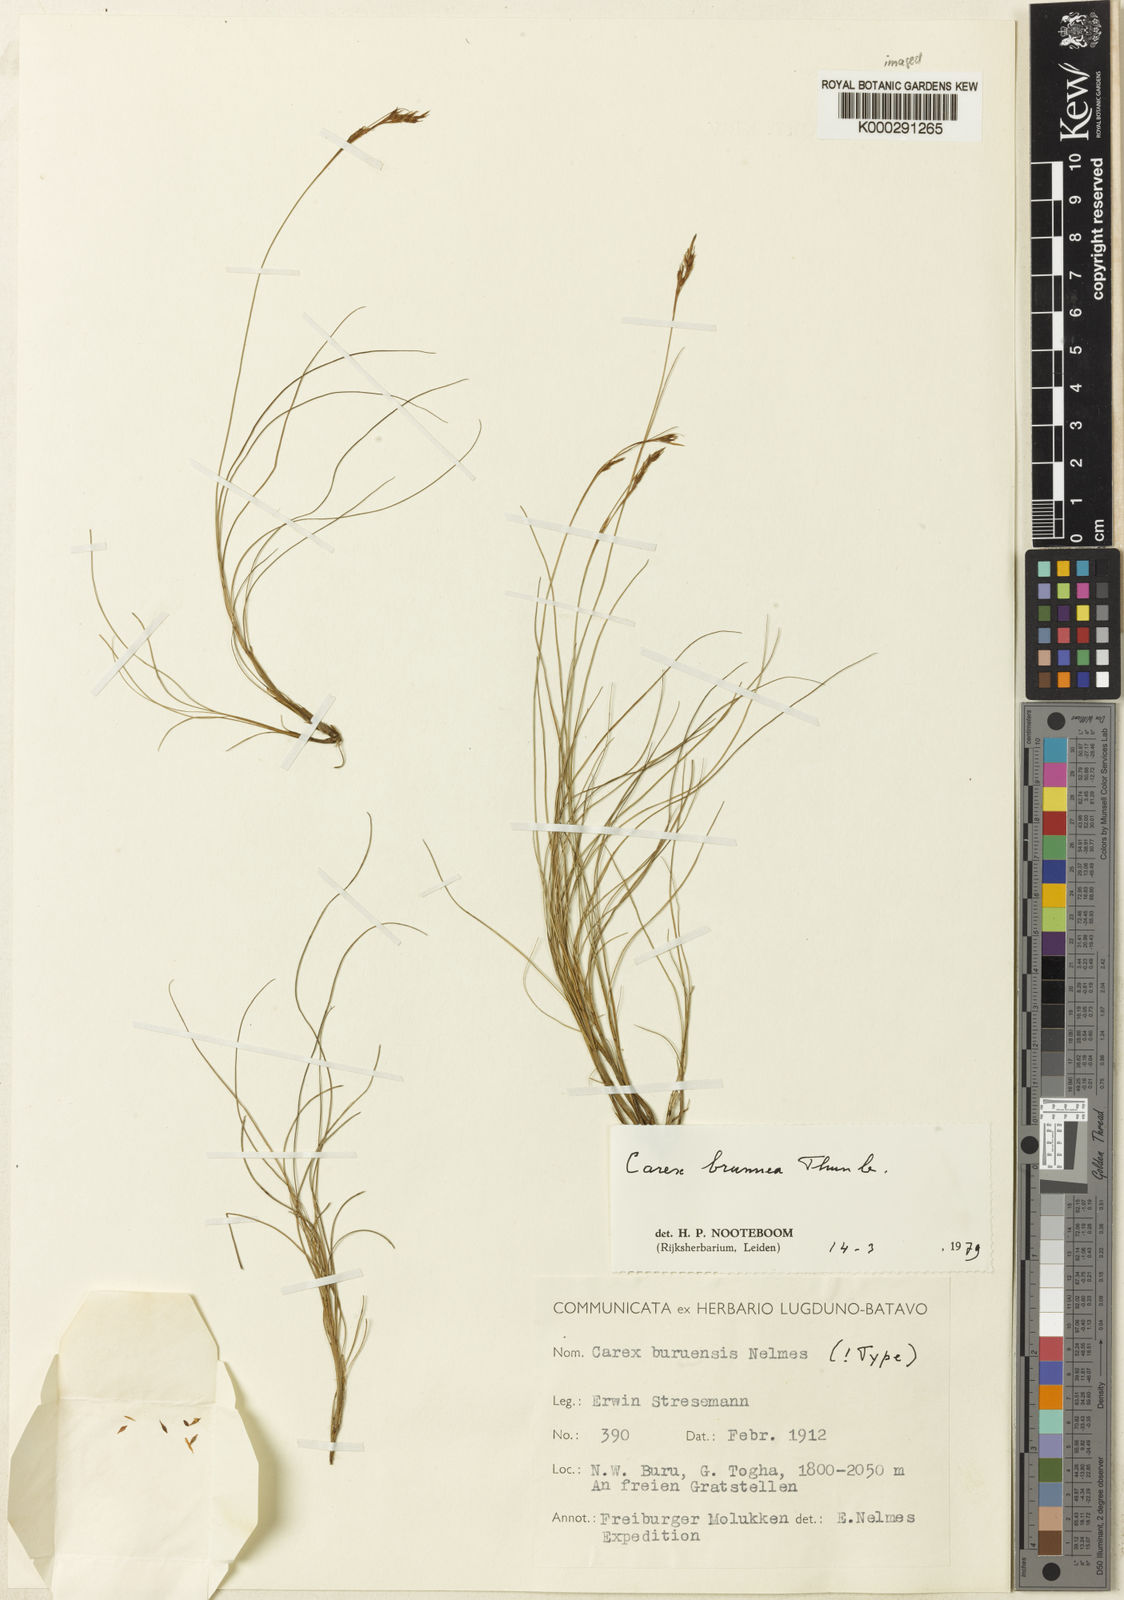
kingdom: Plantae
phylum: Tracheophyta
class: Liliopsida
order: Poales
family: Cyperaceae
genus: Carex
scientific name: Carex brunnea
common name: Greater brown sedge
